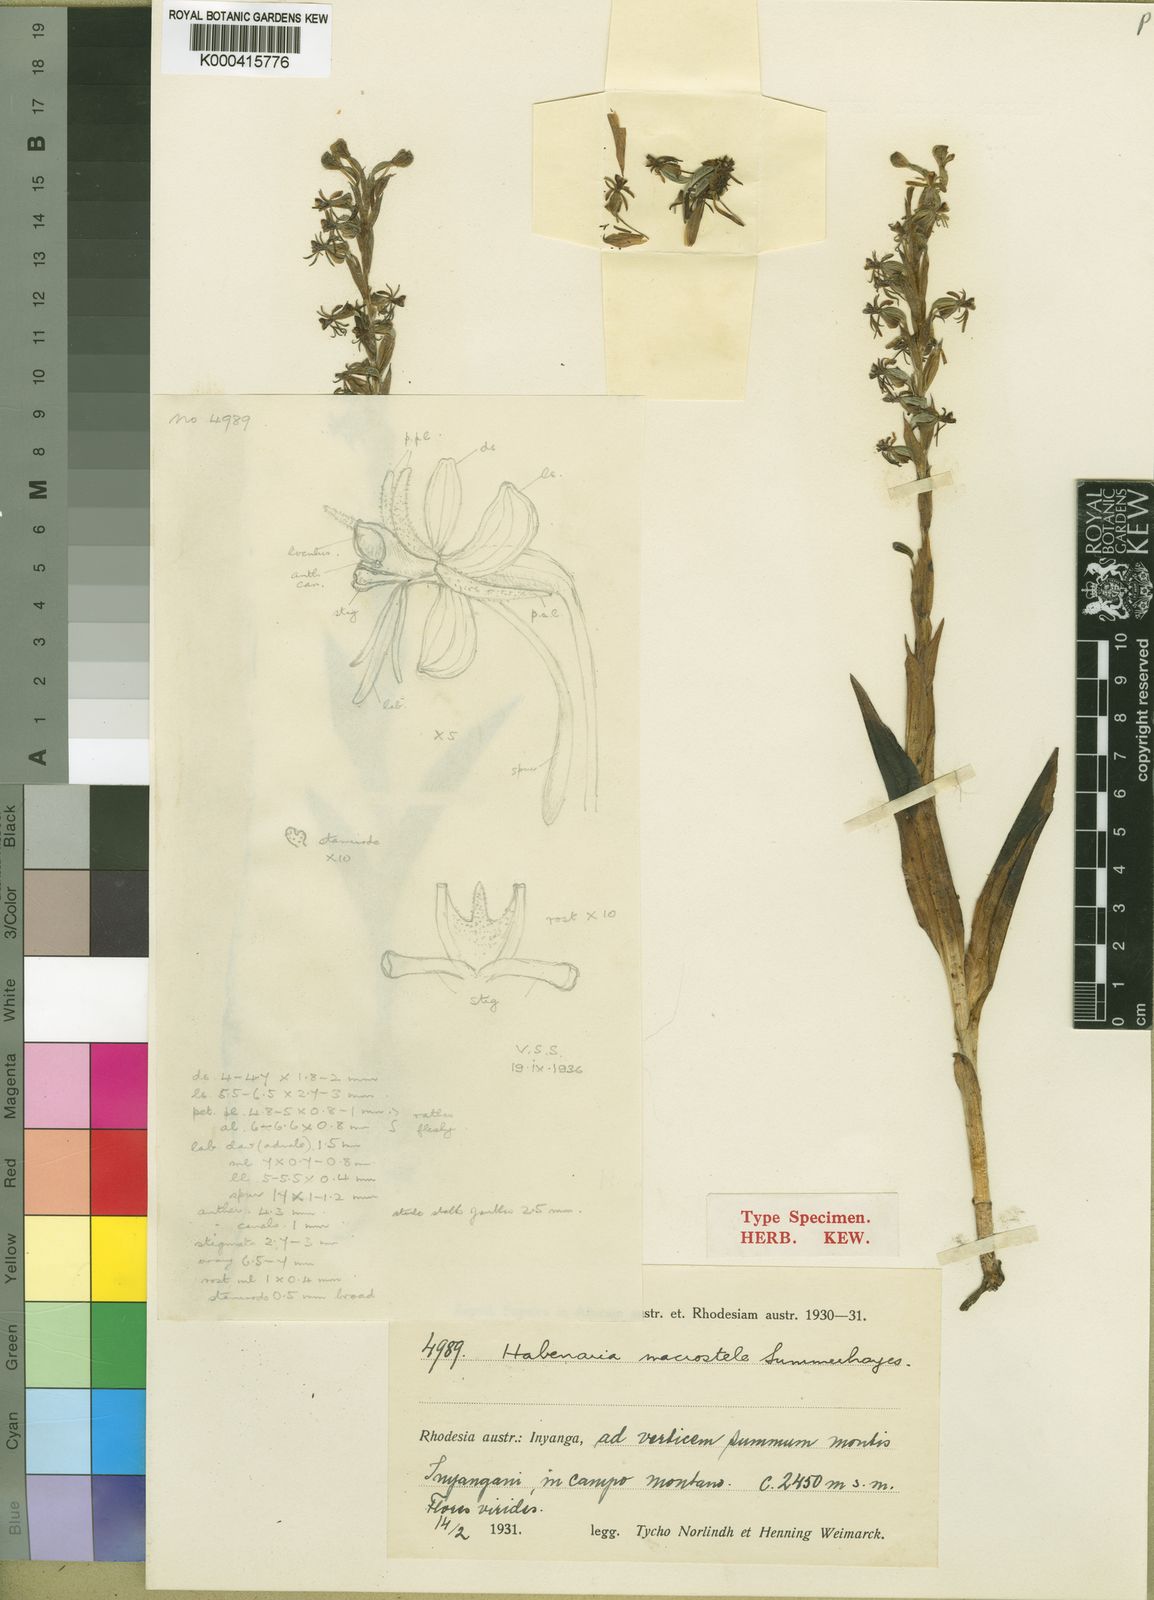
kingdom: Plantae
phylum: Tracheophyta
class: Liliopsida
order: Asparagales
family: Orchidaceae
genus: Habenaria
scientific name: Habenaria macrostele
